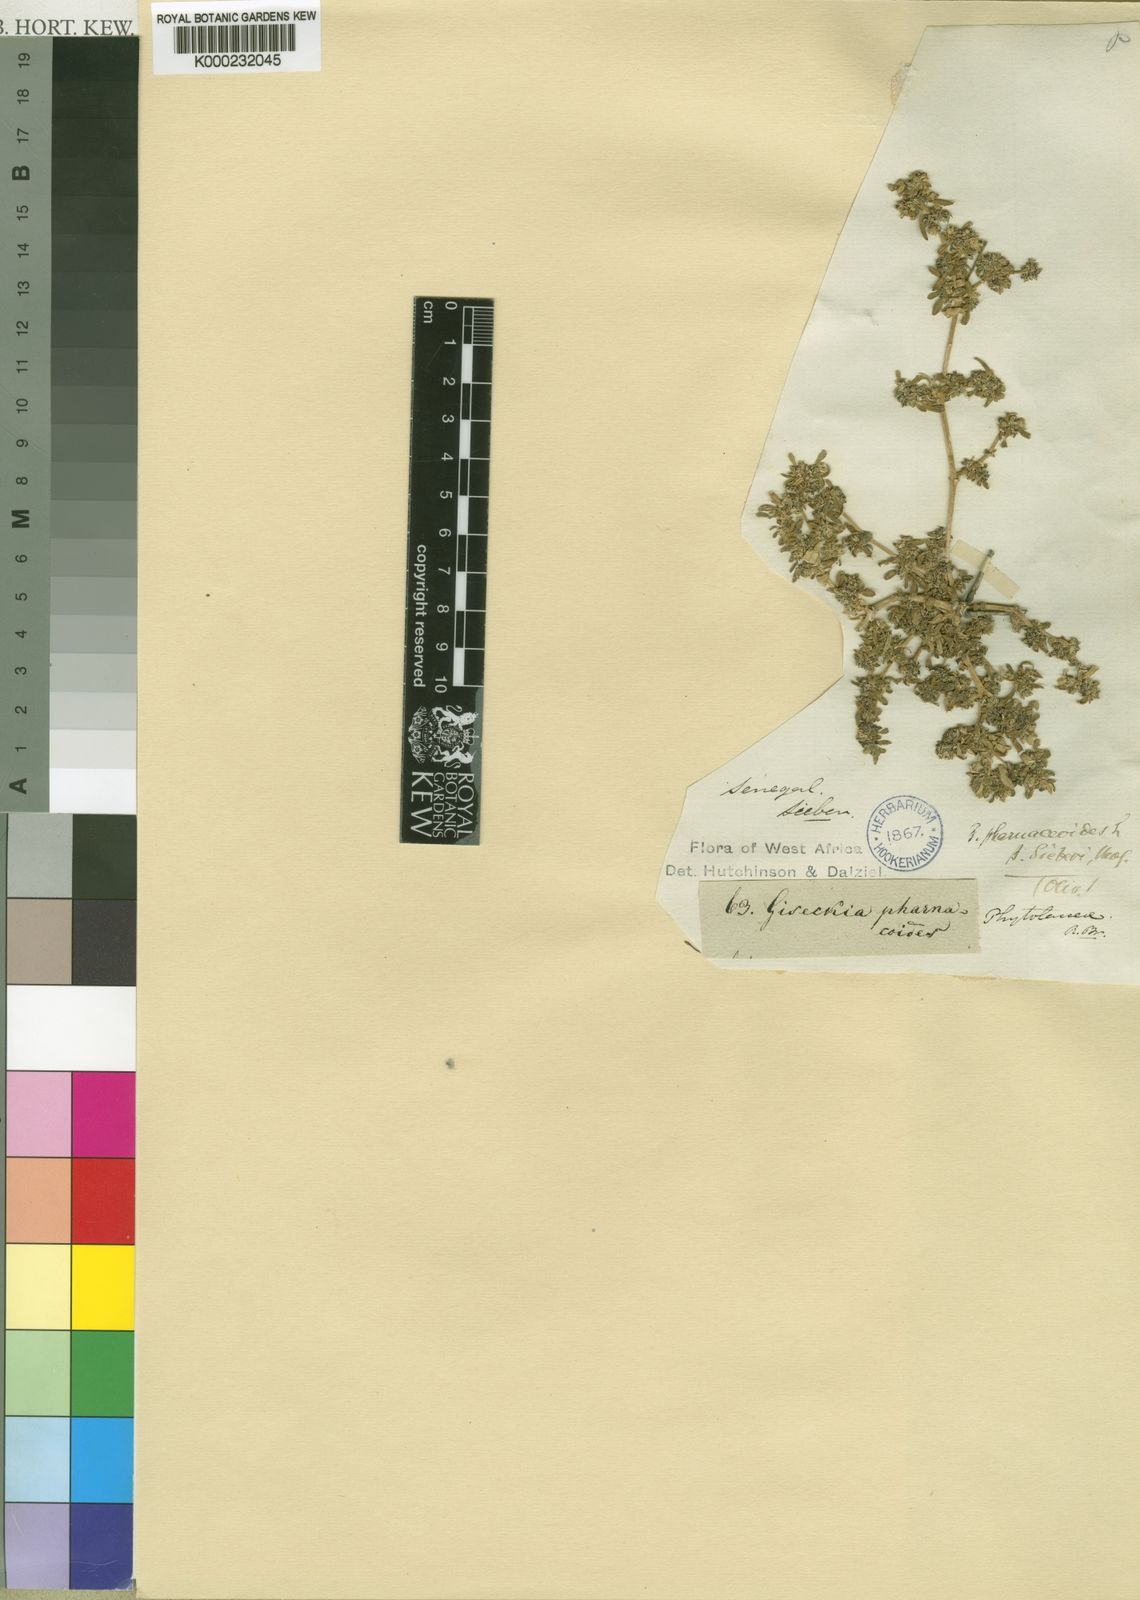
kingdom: Plantae
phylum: Tracheophyta
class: Magnoliopsida
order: Caryophyllales
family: Gisekiaceae
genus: Gisekia
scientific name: Gisekia pharnaceoides
